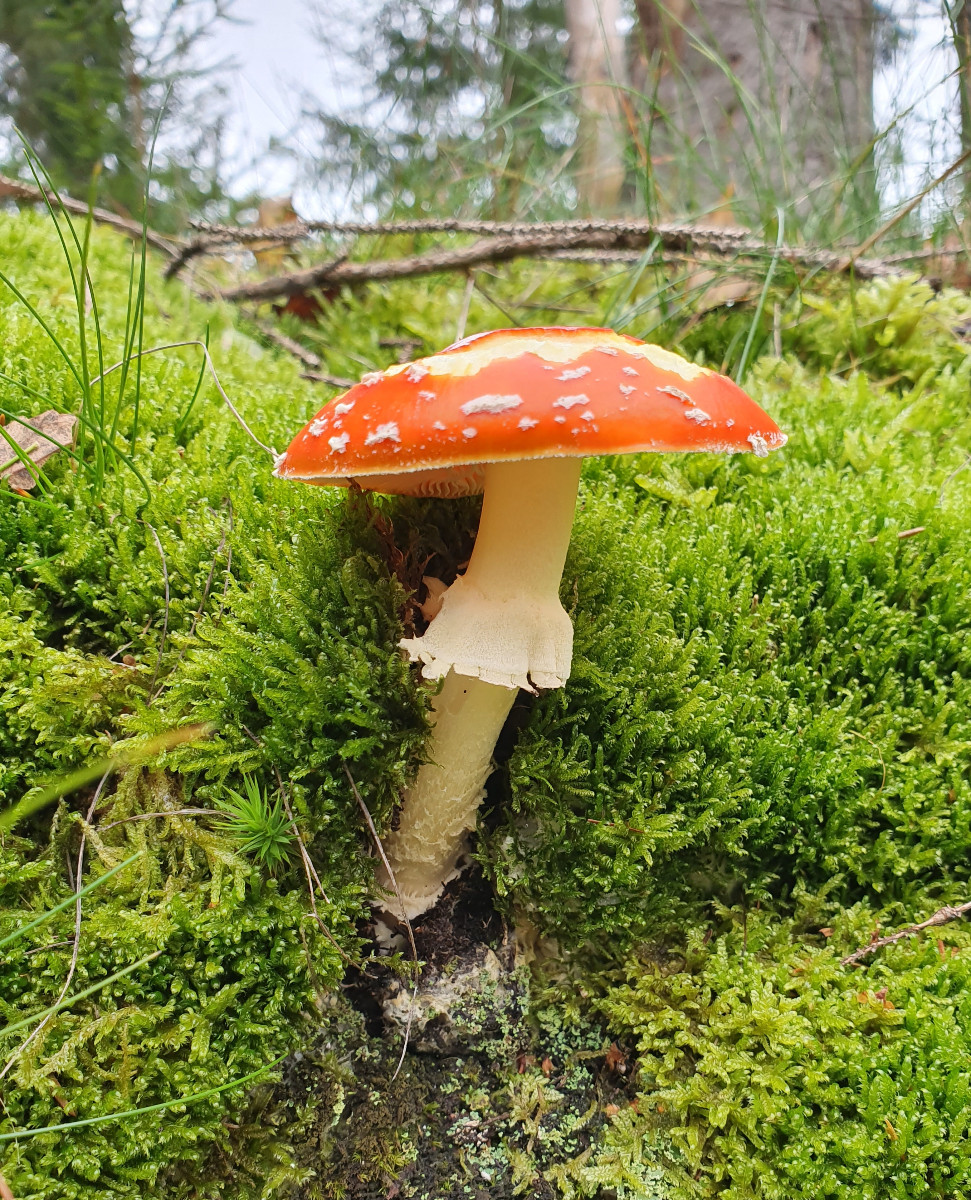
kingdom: Fungi
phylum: Basidiomycota
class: Agaricomycetes
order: Agaricales
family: Amanitaceae
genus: Amanita
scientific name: Amanita muscaria
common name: rød fluesvamp
